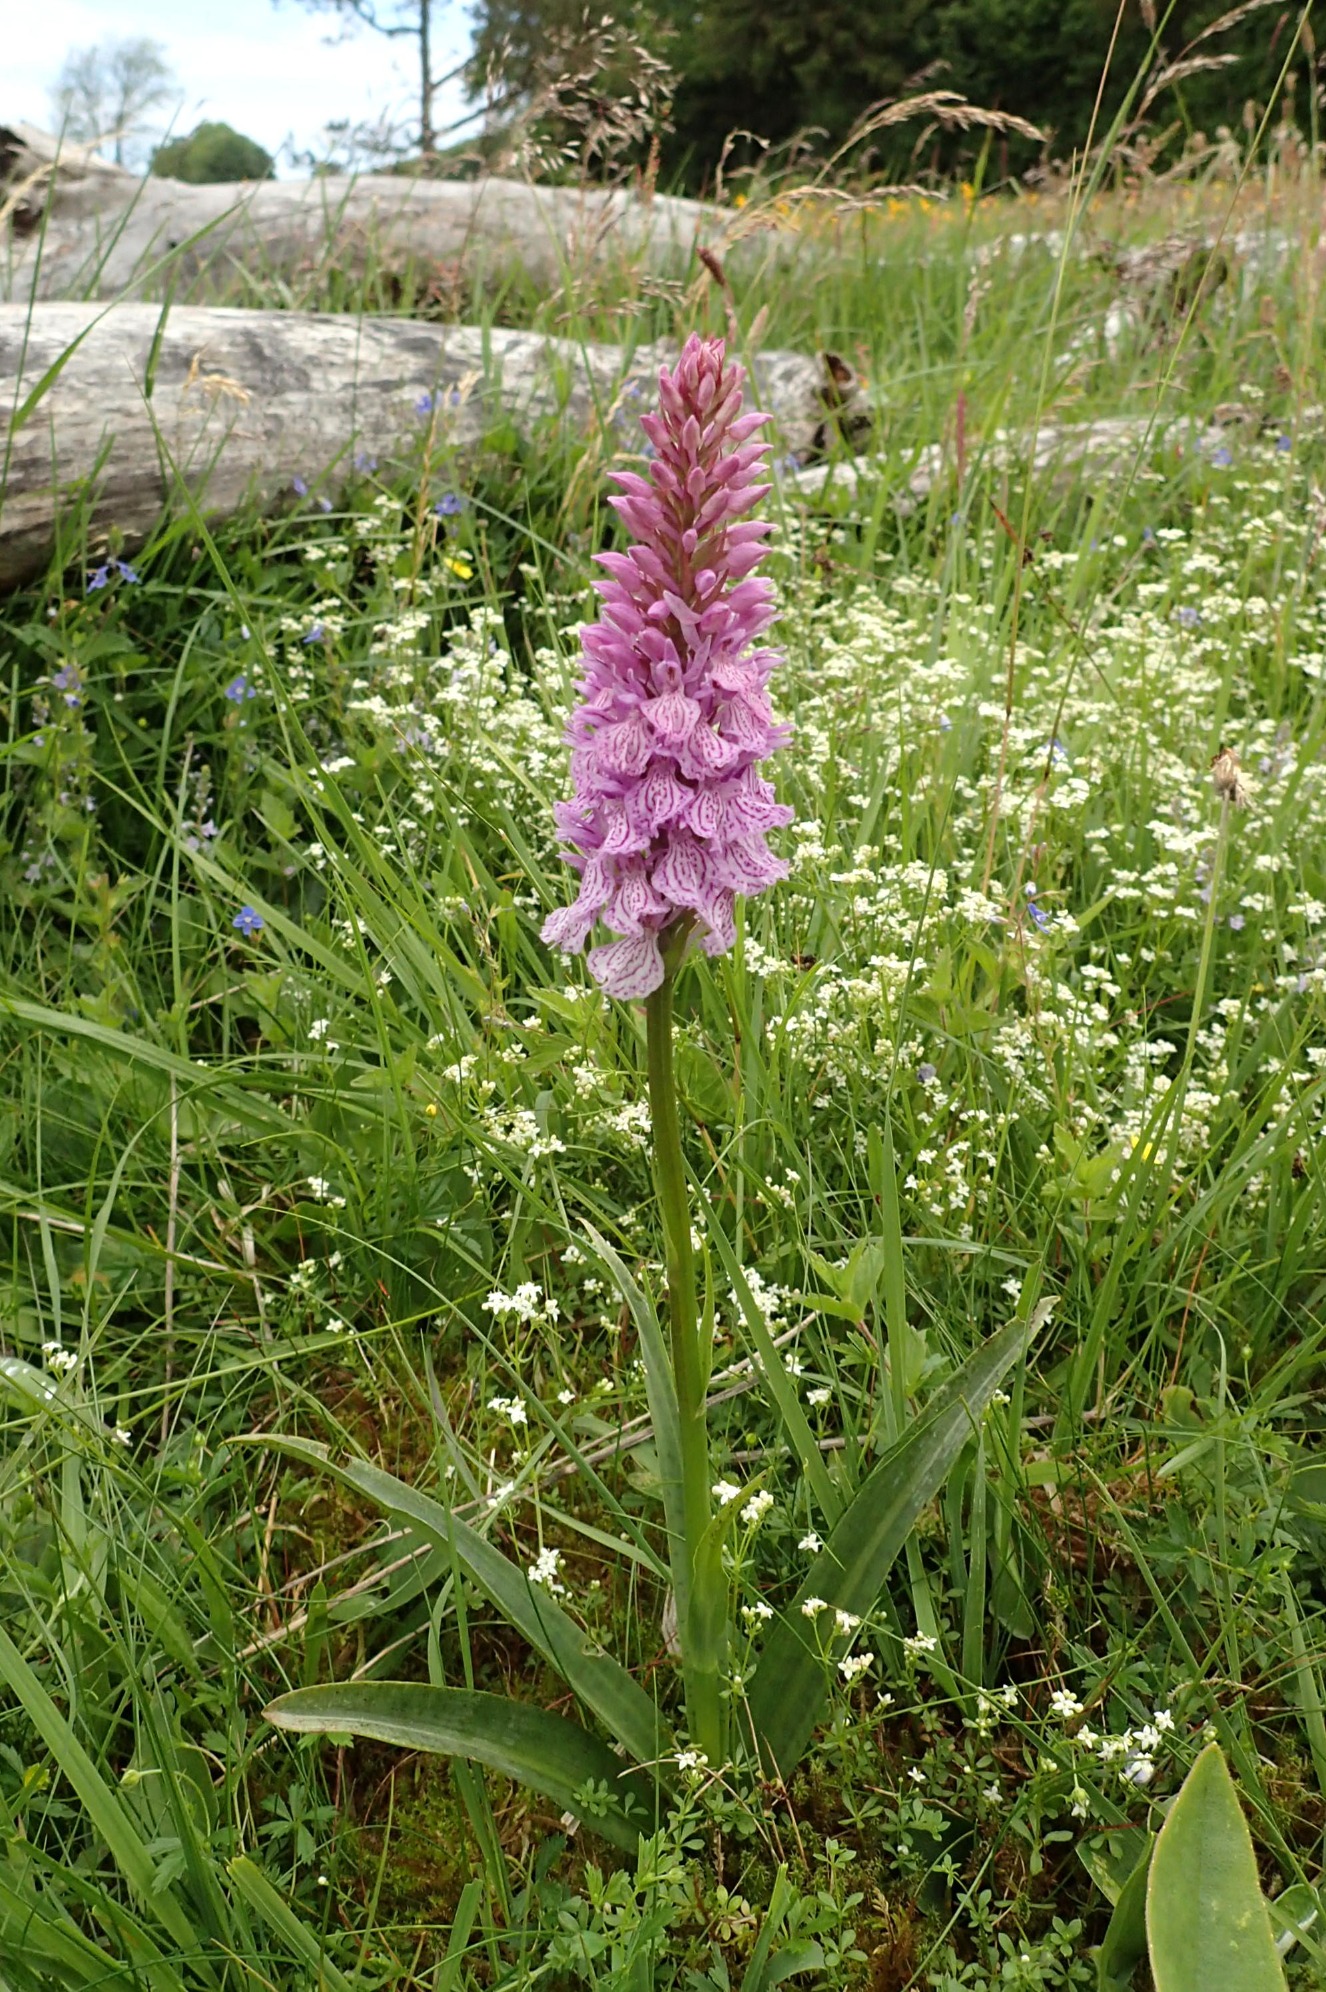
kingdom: Plantae
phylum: Tracheophyta
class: Liliopsida
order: Asparagales
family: Orchidaceae
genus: Dactylorhiza
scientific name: Dactylorhiza maculata
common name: Plettet gøgeurt
